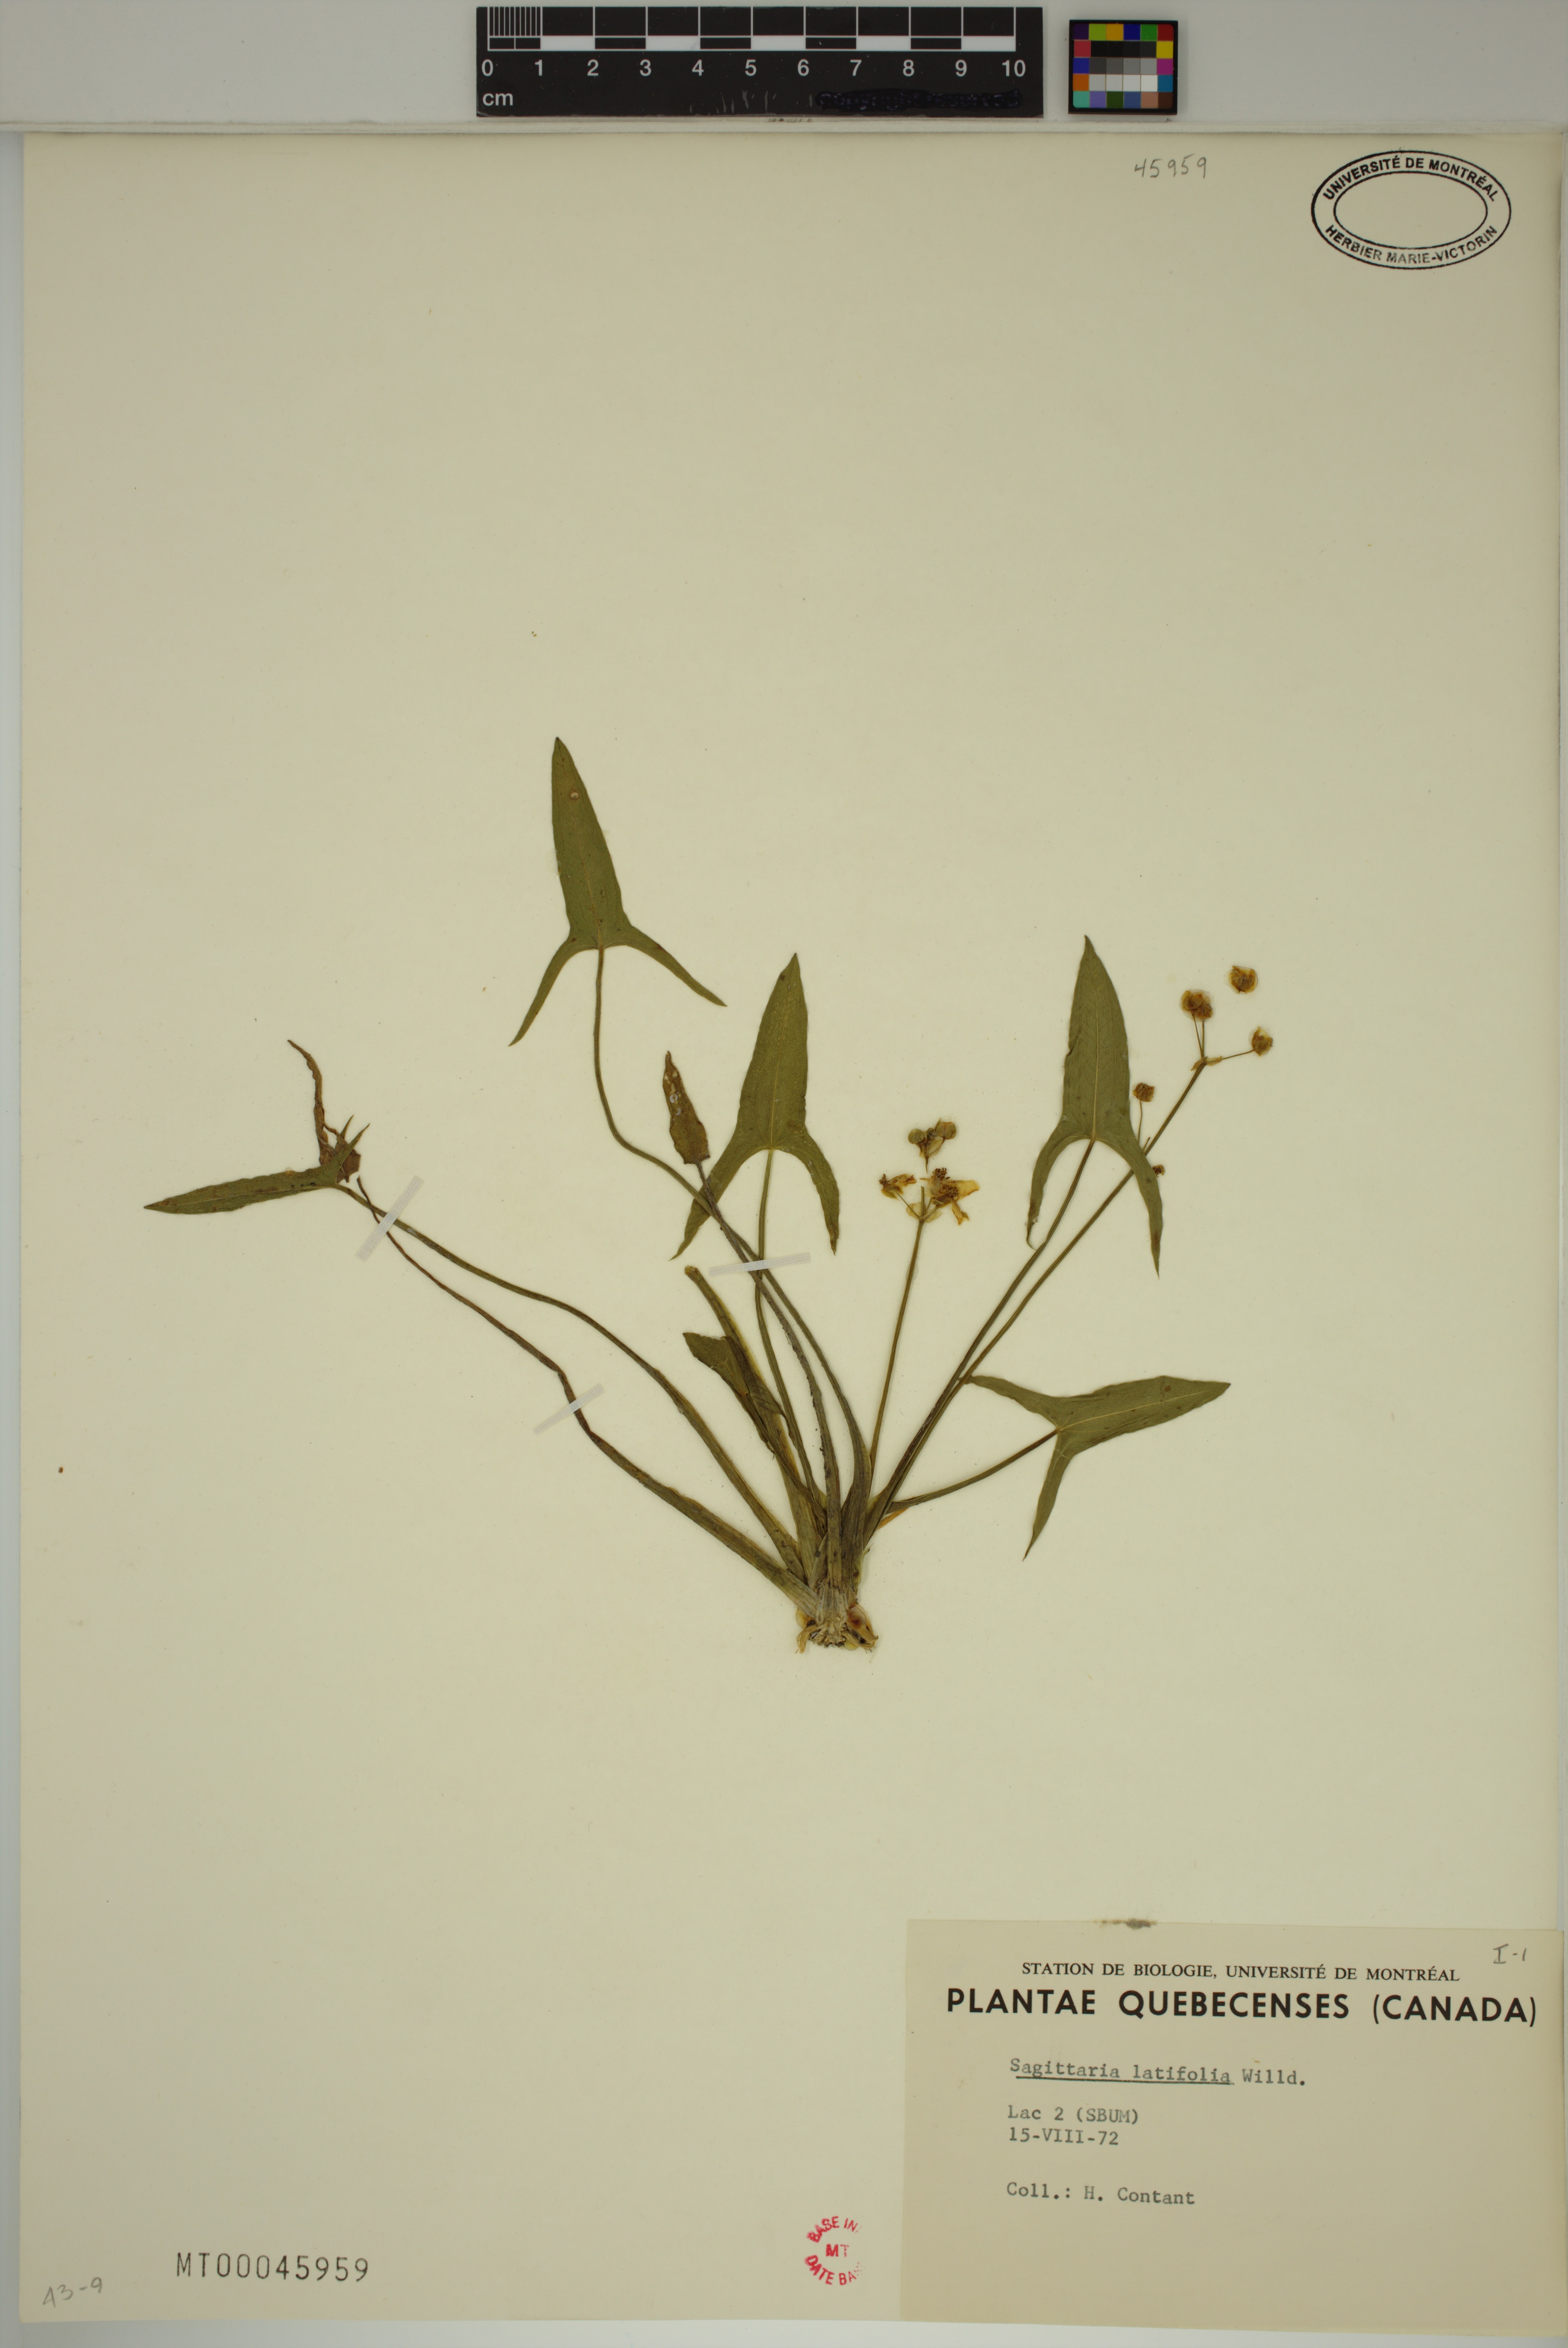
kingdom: Plantae
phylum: Tracheophyta
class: Liliopsida
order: Alismatales
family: Alismataceae
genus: Sagittaria
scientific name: Sagittaria latifolia
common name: Duck-potato
